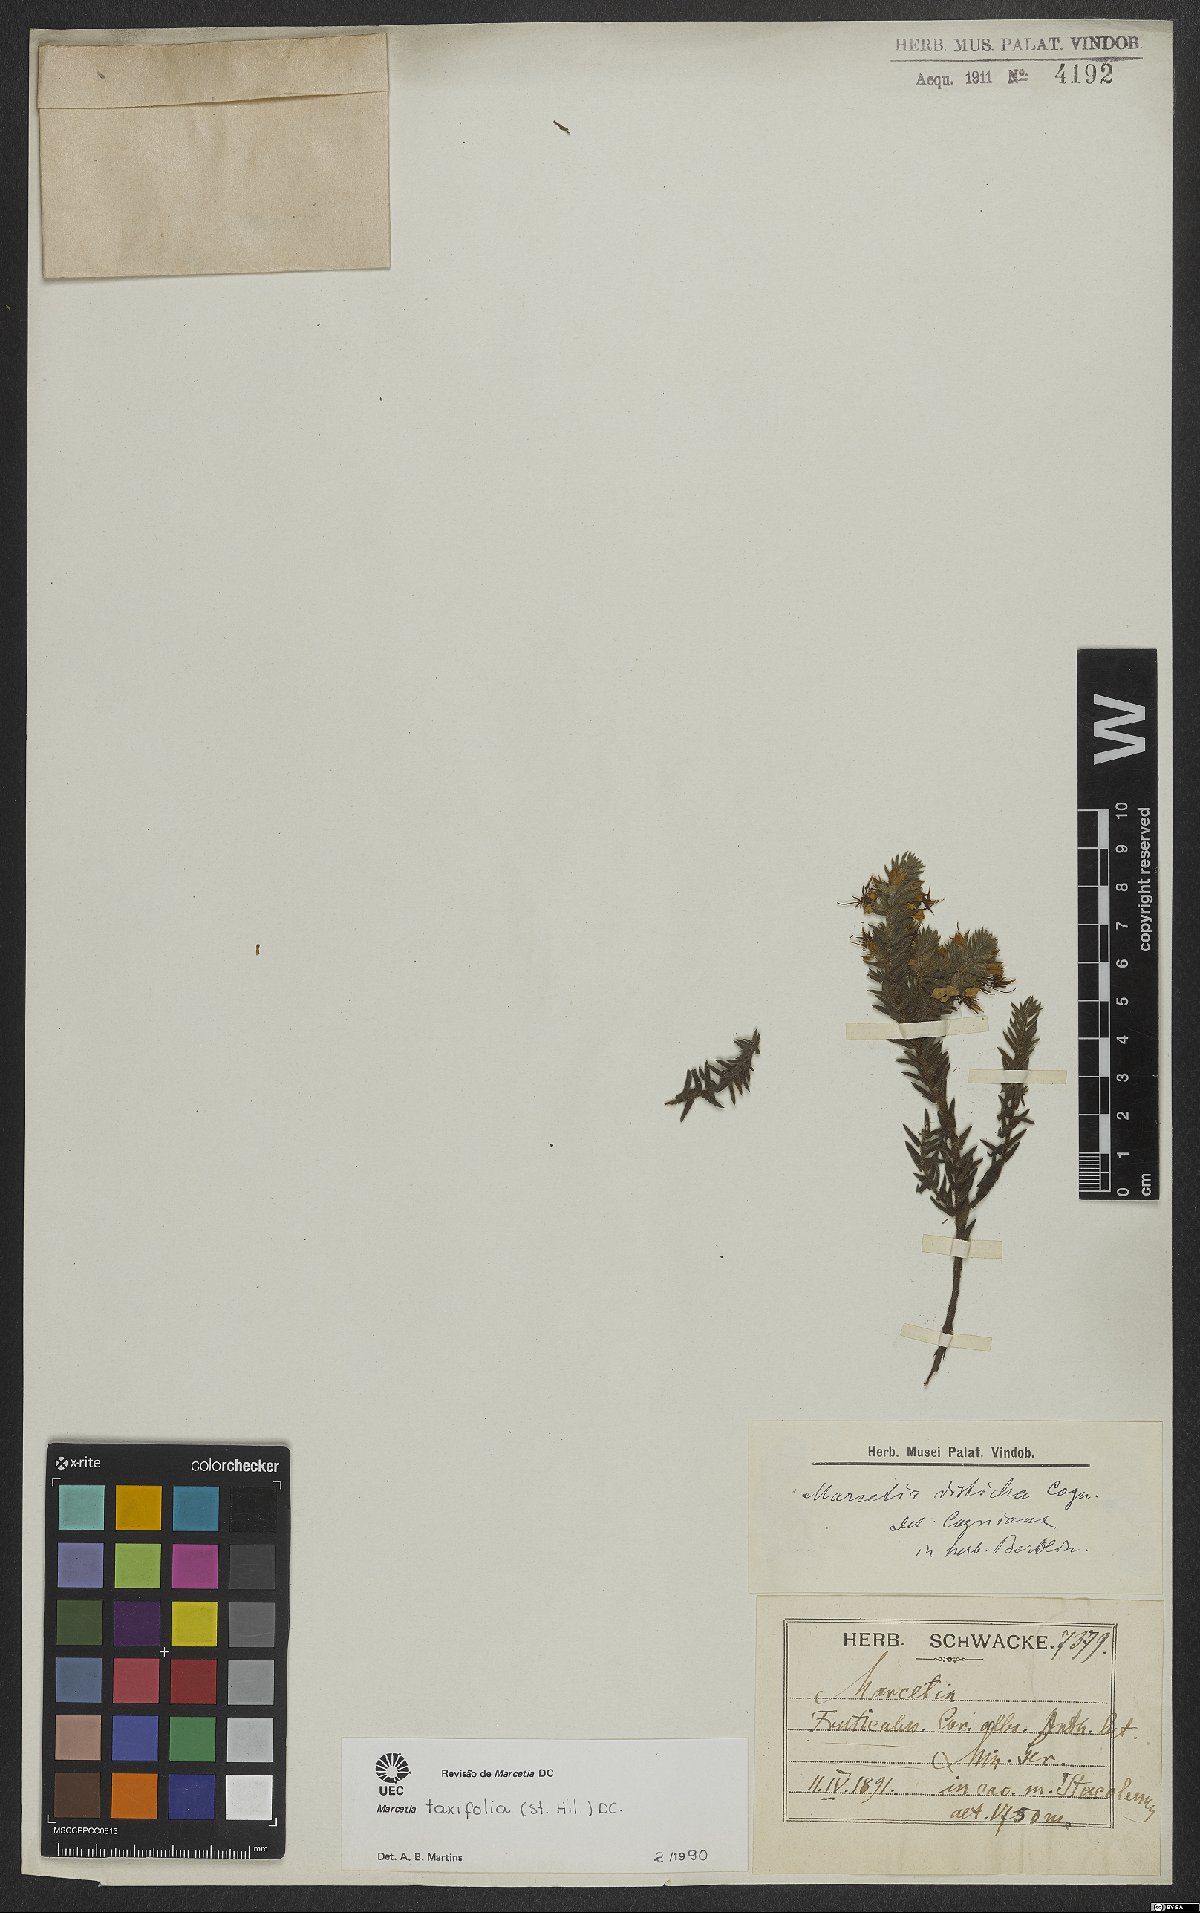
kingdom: Plantae
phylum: Tracheophyta
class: Magnoliopsida
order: Myrtales
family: Melastomataceae
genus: Marcetia
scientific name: Marcetia taxifolia
